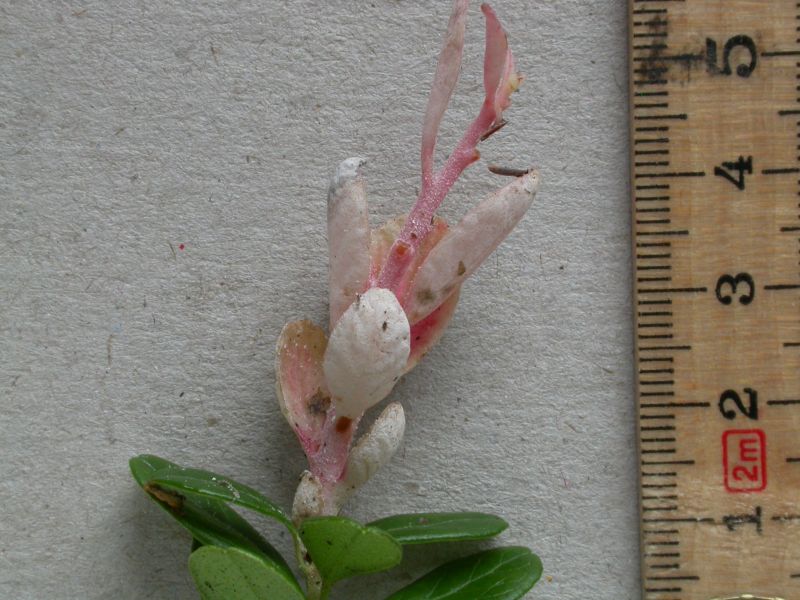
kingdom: Fungi
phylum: Basidiomycota
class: Exobasidiomycetes
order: Exobasidiales
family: Exobasidiaceae
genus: Exobasidium
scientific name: Exobasidium vaccinii
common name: tyttebærblad-bøllesvamp
